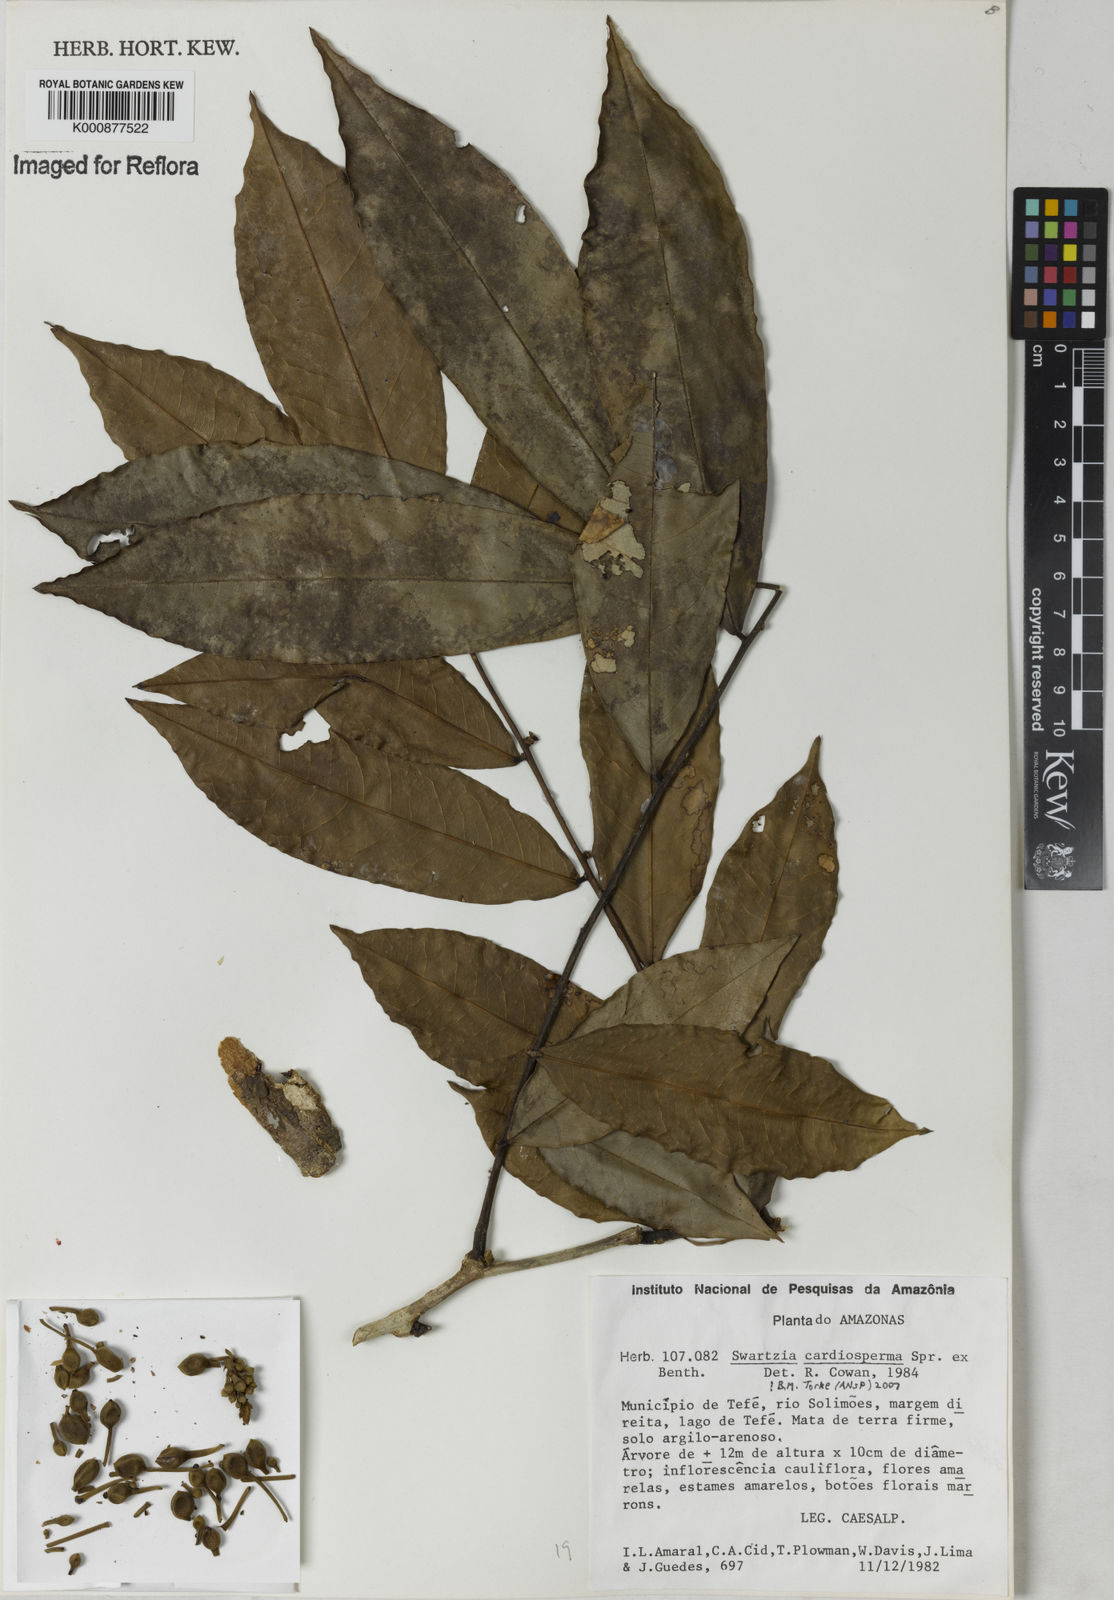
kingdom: Plantae
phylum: Tracheophyta
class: Magnoliopsida
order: Fabales
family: Fabaceae
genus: Swartzia
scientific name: Swartzia cardiosperma
